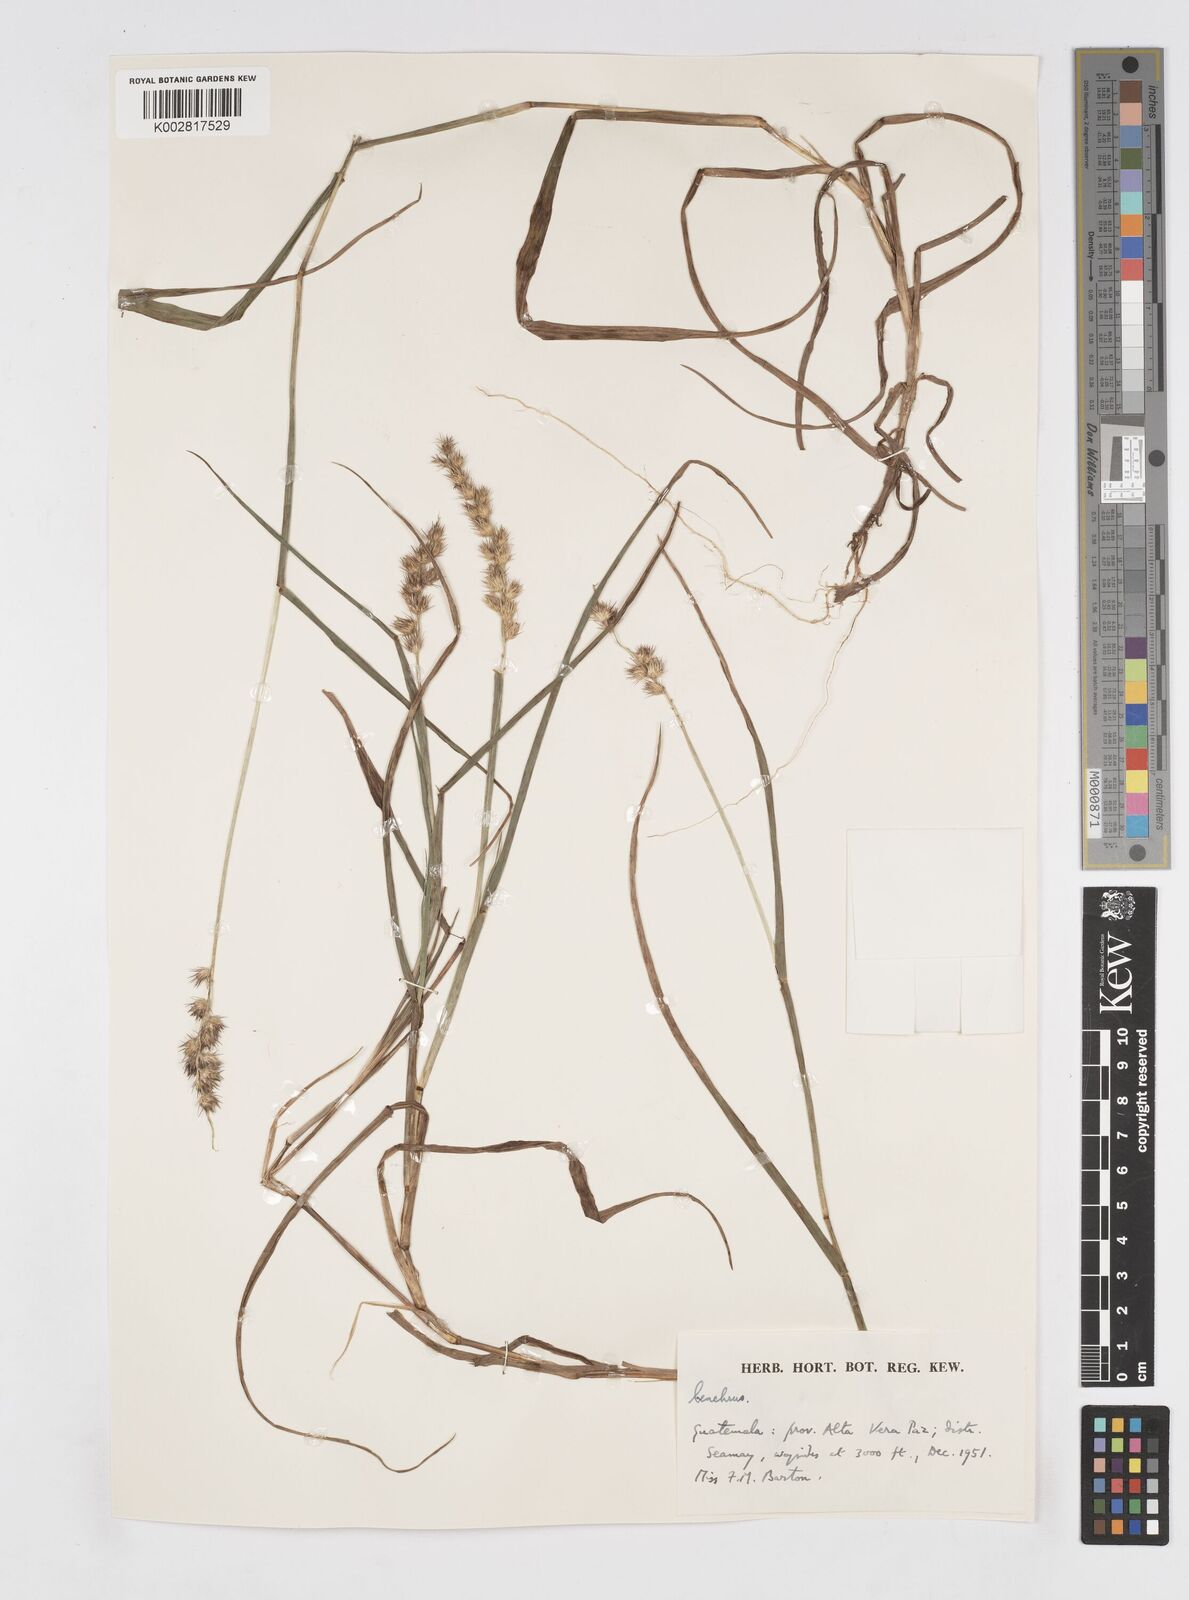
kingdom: Plantae
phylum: Tracheophyta
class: Liliopsida
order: Poales
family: Poaceae
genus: Cenchrus
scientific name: Cenchrus
